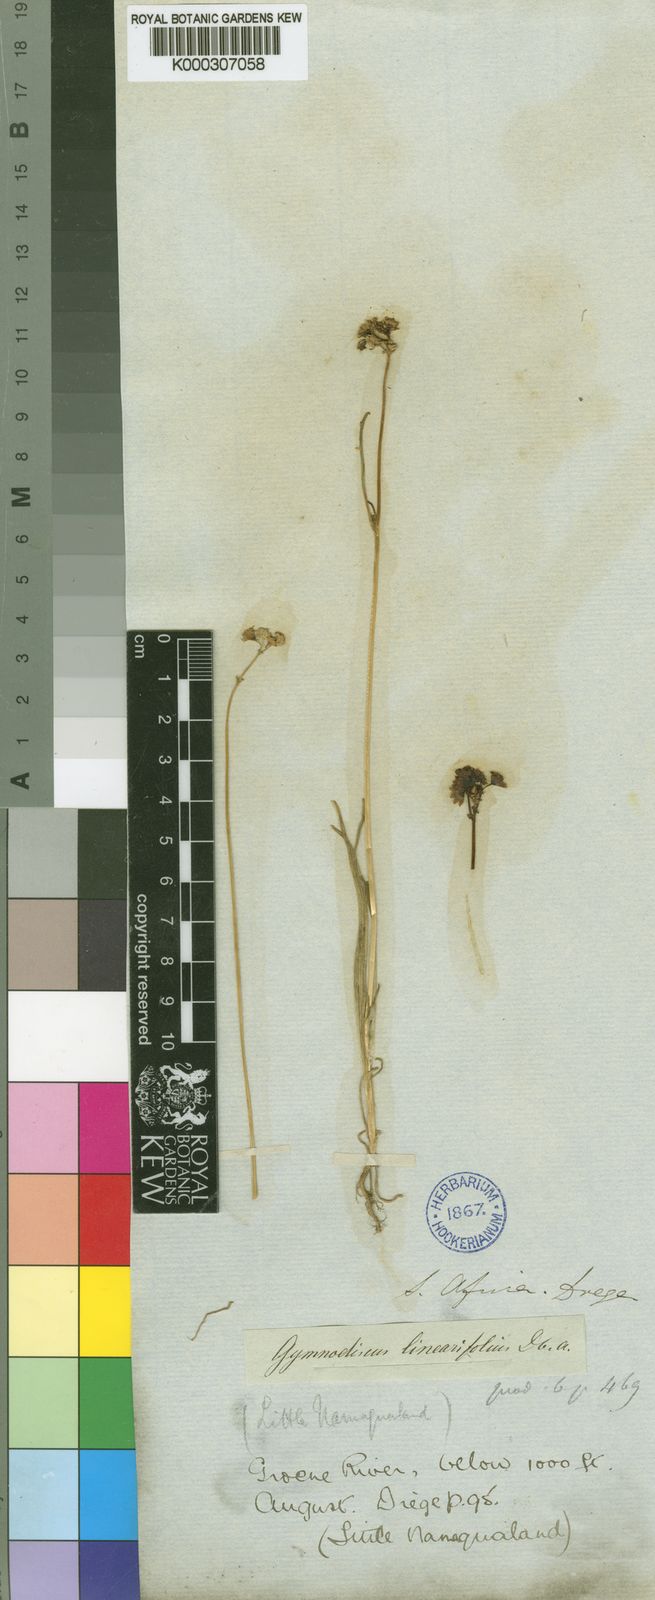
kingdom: Plantae
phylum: Tracheophyta
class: Magnoliopsida
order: Asterales
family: Asteraceae
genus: Gymnodiscus
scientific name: Gymnodiscus linearifolius
